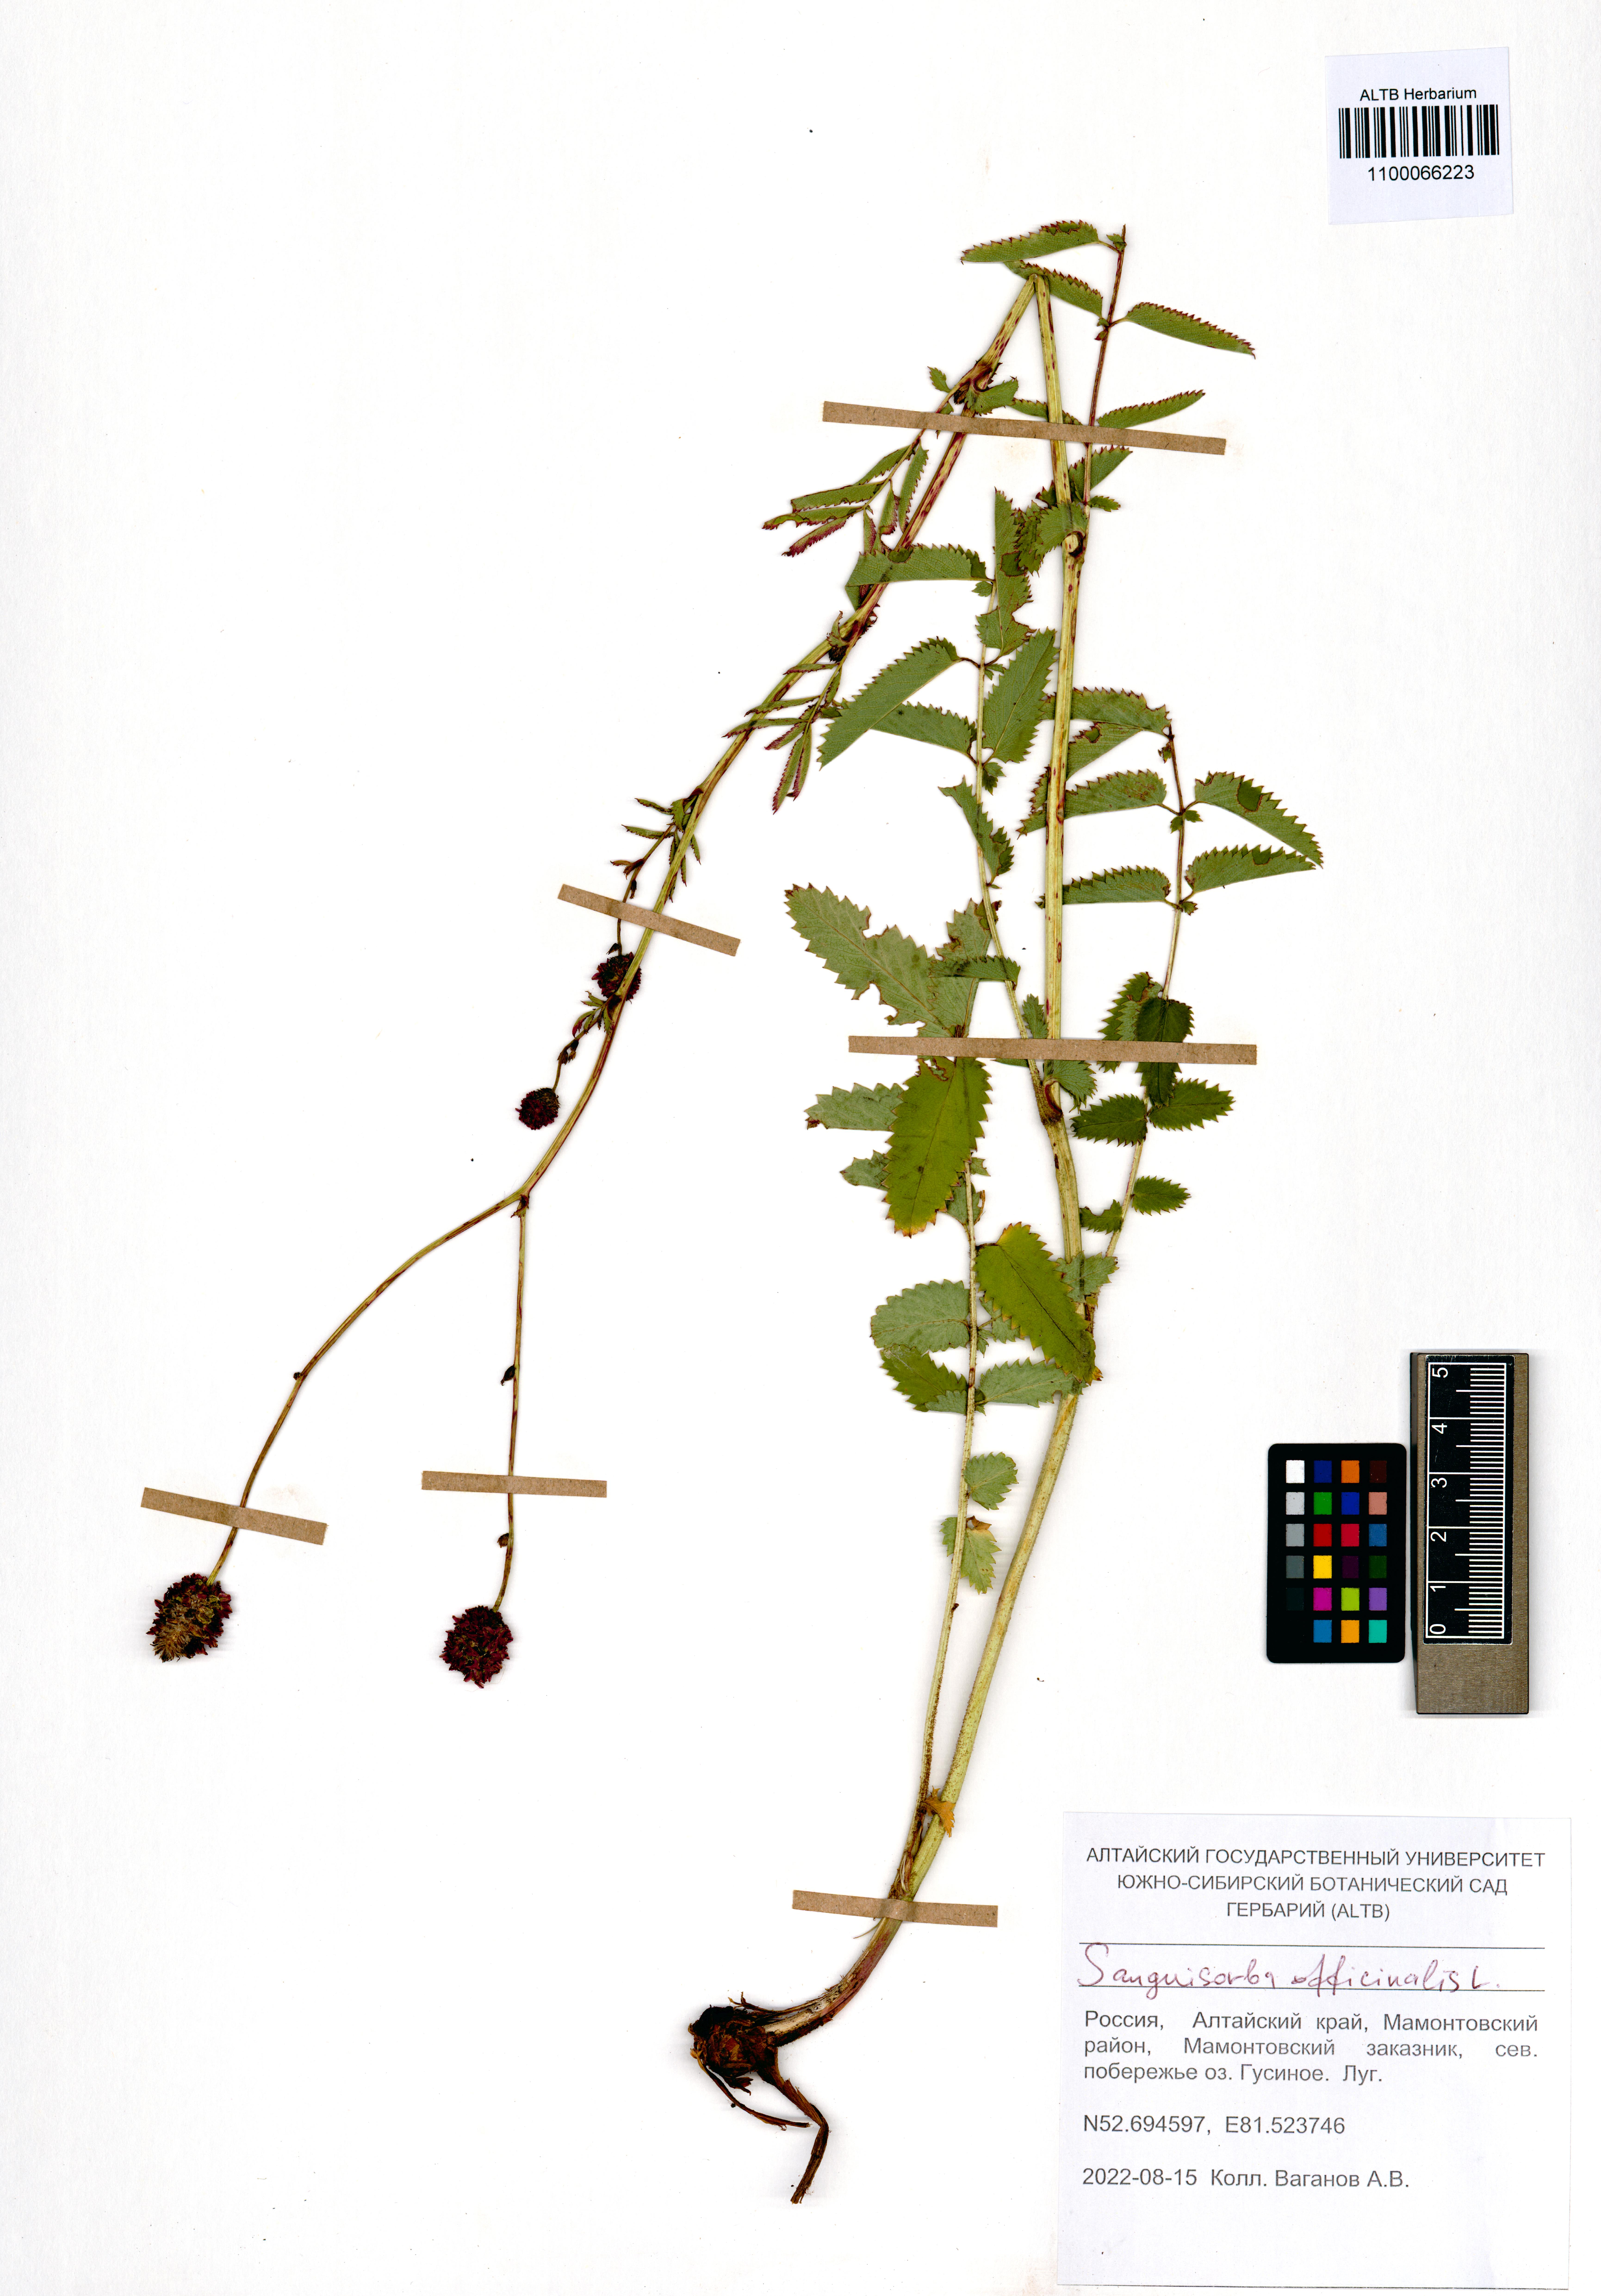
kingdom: Plantae
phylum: Tracheophyta
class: Magnoliopsida
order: Rosales
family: Rosaceae
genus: Sanguisorba
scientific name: Sanguisorba officinalis
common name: Great burnet
